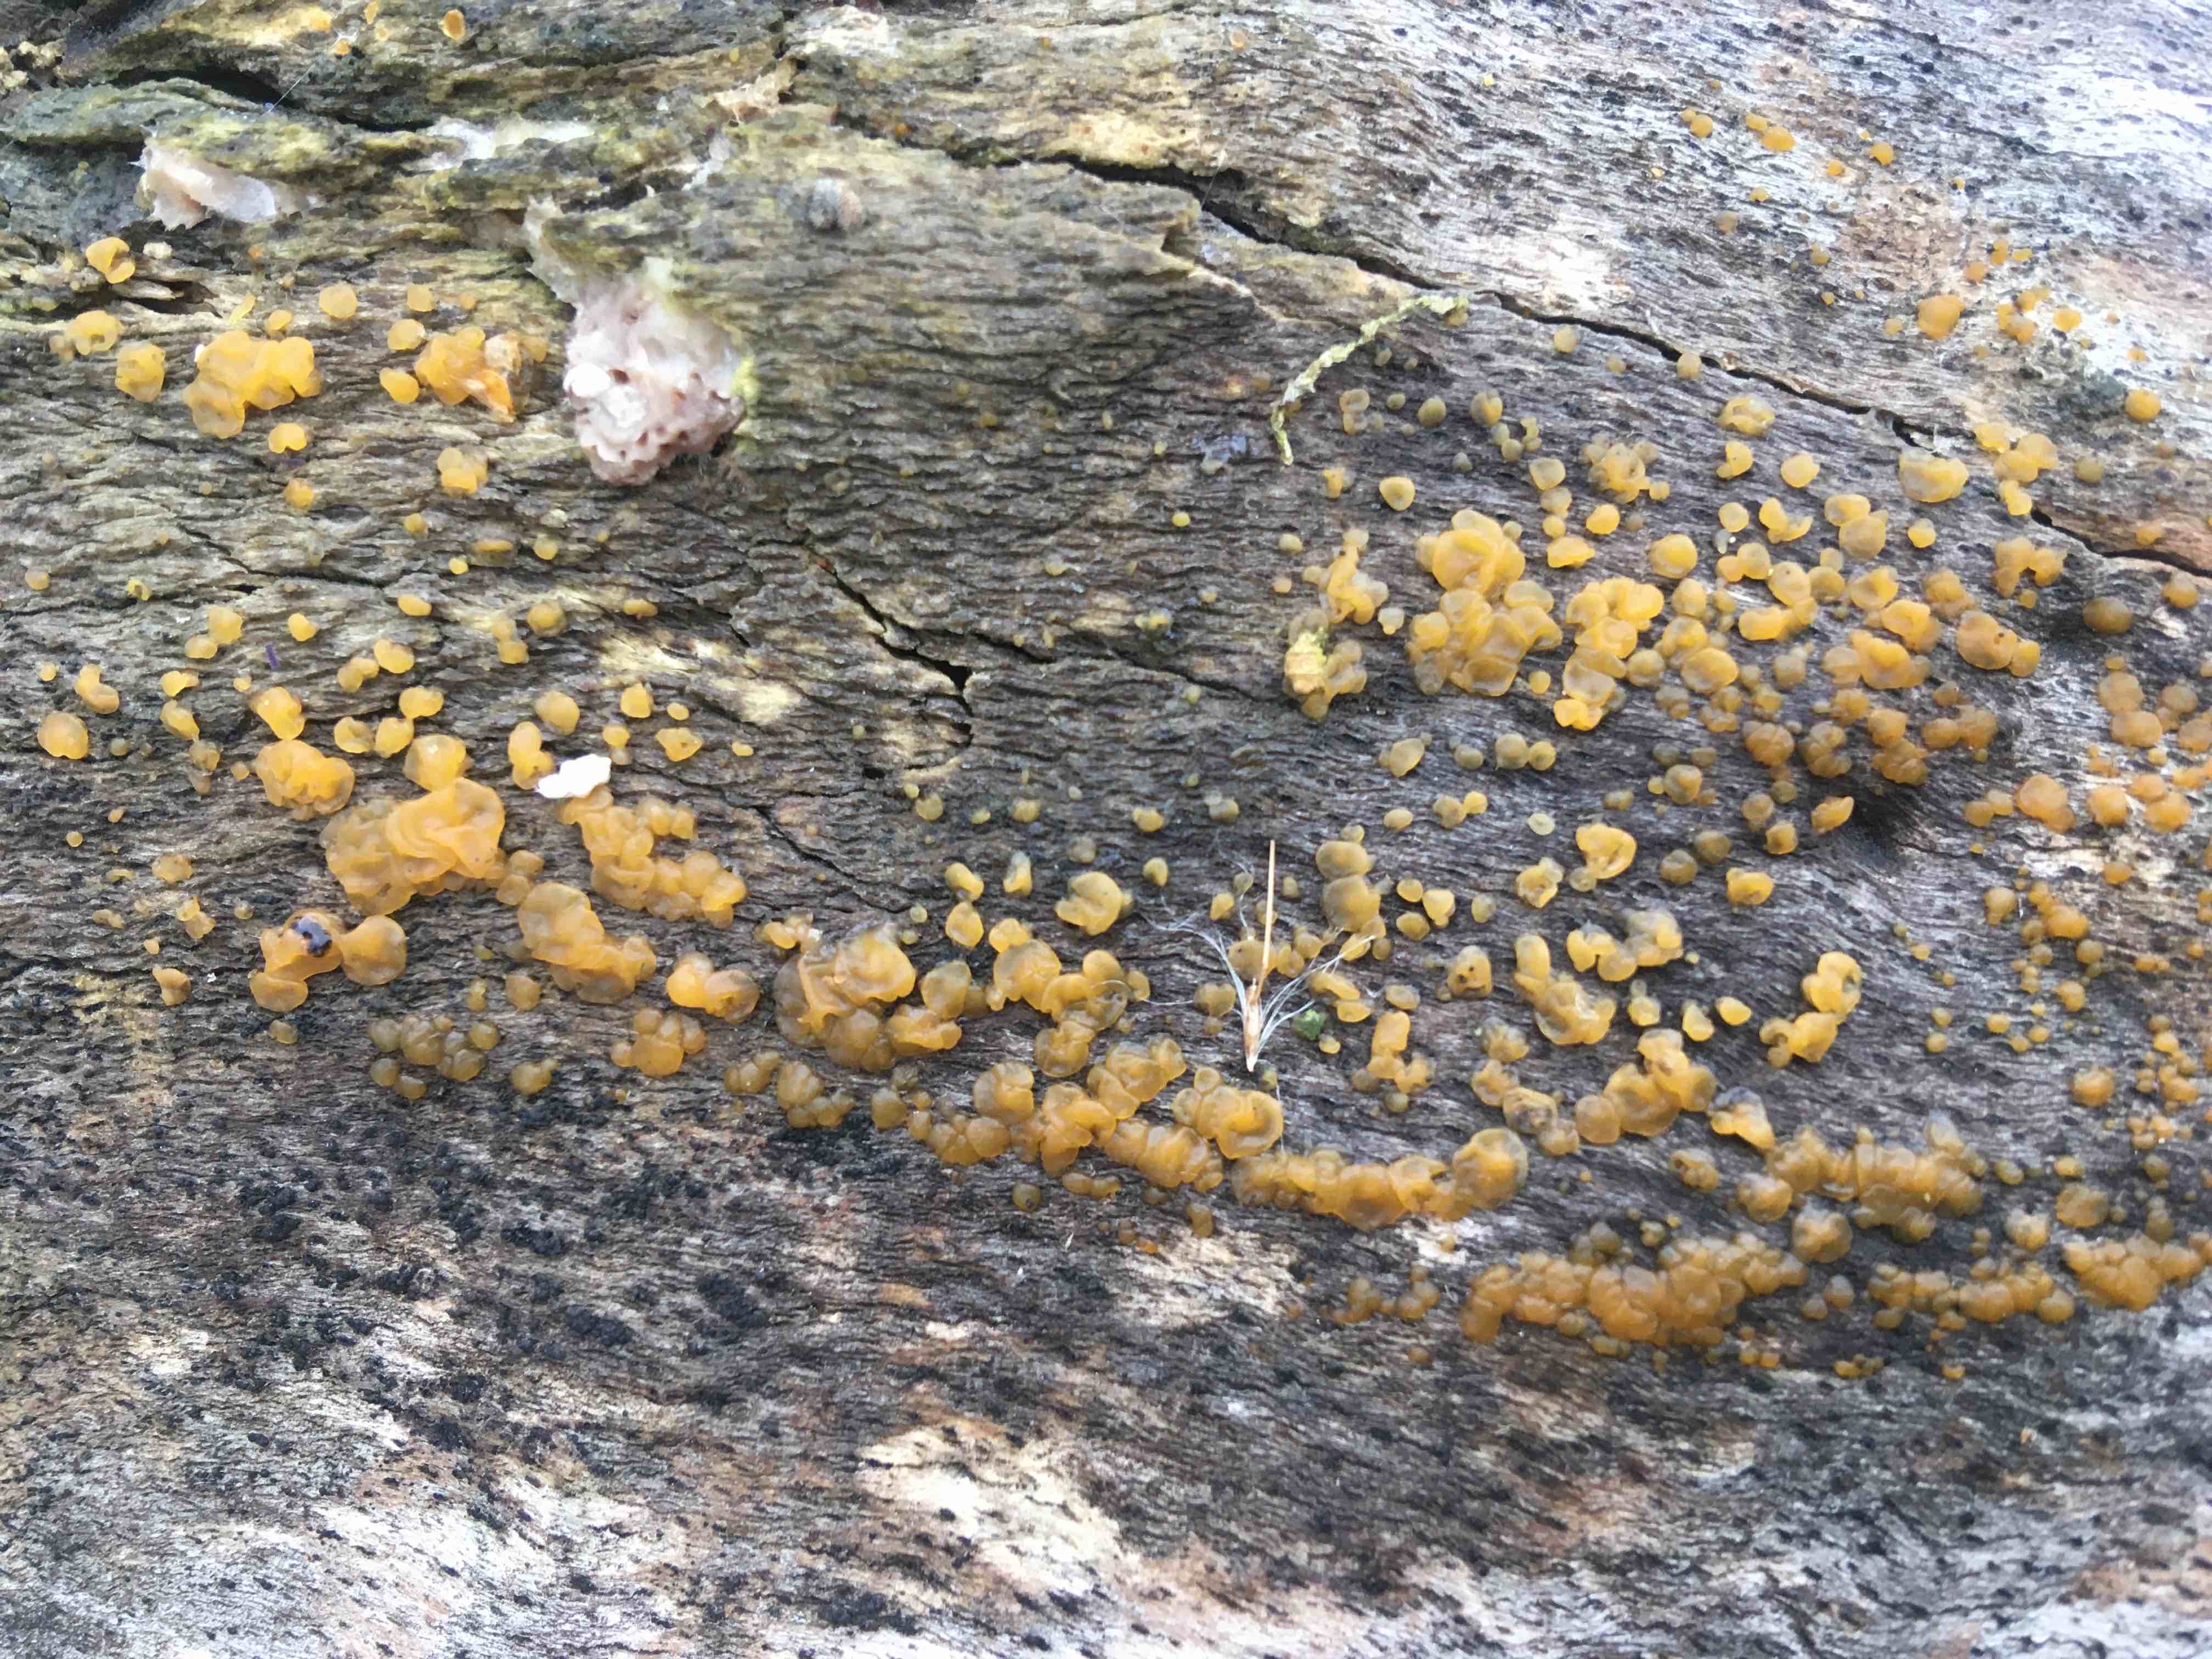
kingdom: Fungi
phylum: Basidiomycota
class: Dacrymycetes
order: Dacrymycetales
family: Dacrymycetaceae
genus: Dacrymyces
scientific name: Dacrymyces lacrymalis
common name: rynket tåresvamp
